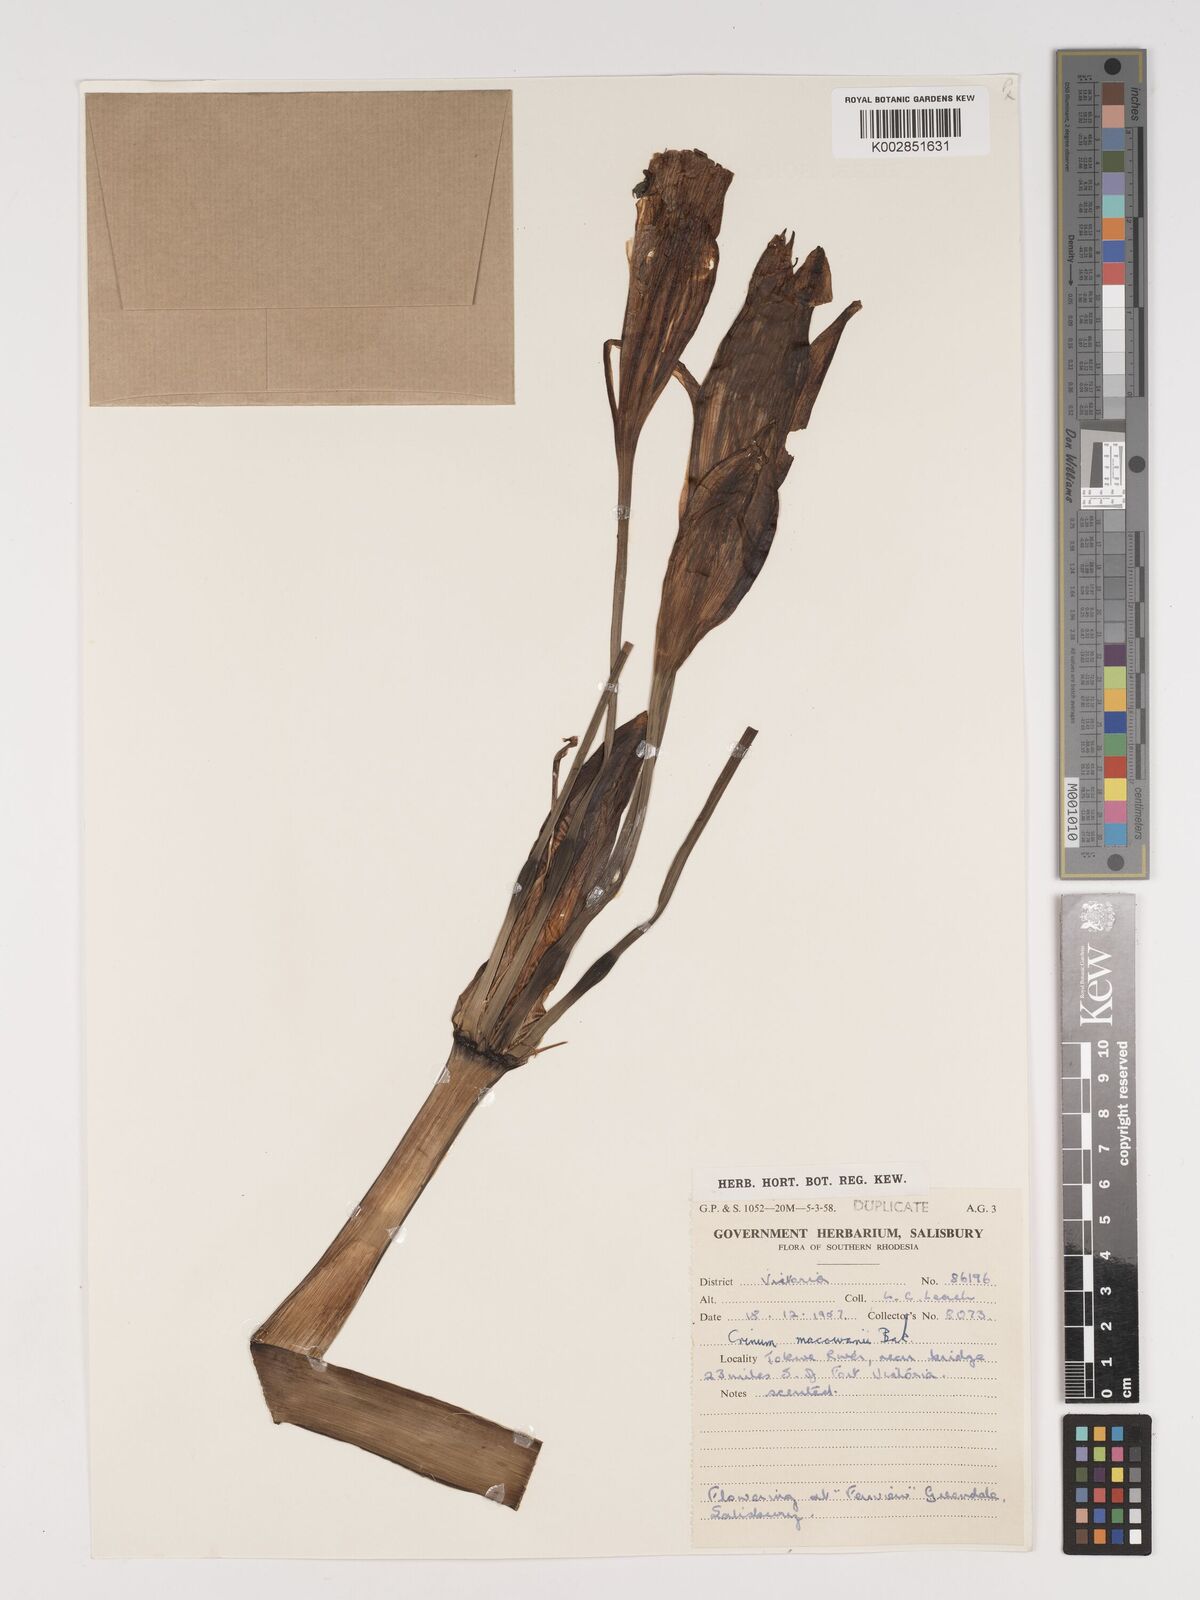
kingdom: Plantae
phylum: Tracheophyta
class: Liliopsida
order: Asparagales
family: Amaryllidaceae
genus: Crinum
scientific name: Crinum macowanii
